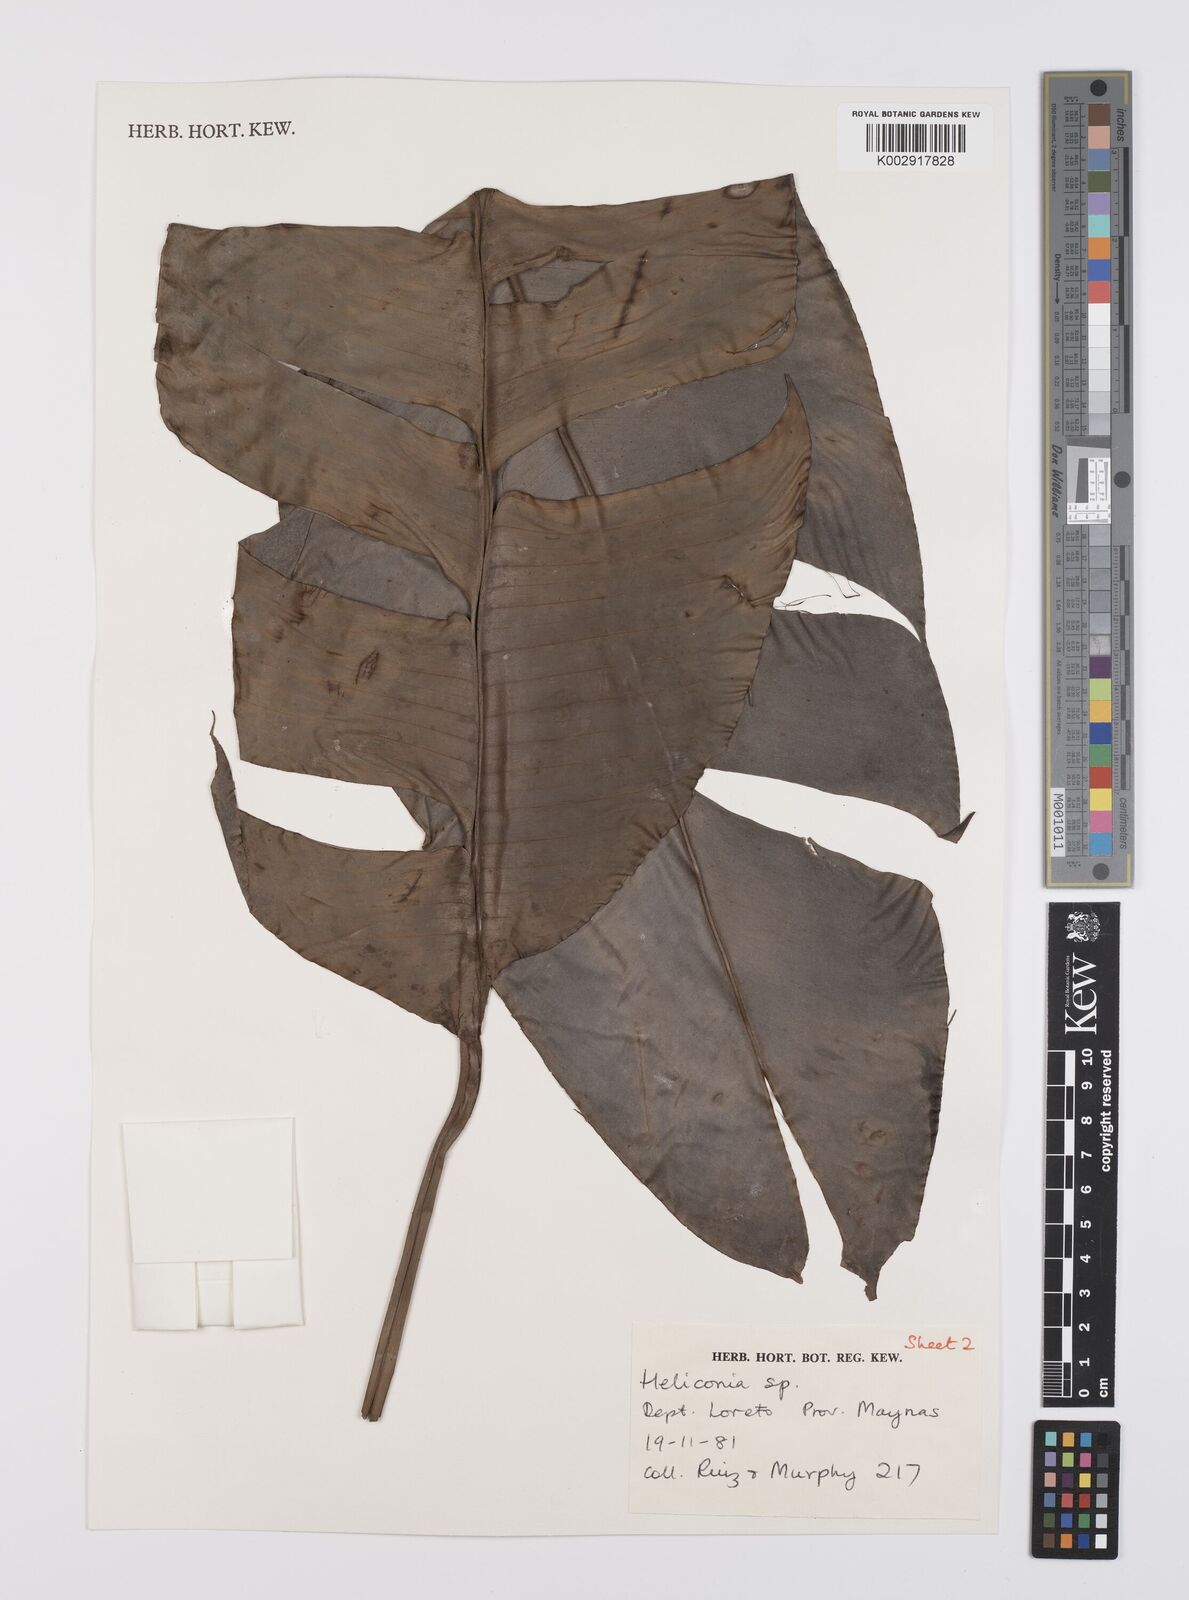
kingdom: Plantae
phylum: Tracheophyta
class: Liliopsida
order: Zingiberales
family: Heliconiaceae
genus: Heliconia
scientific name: Heliconia
